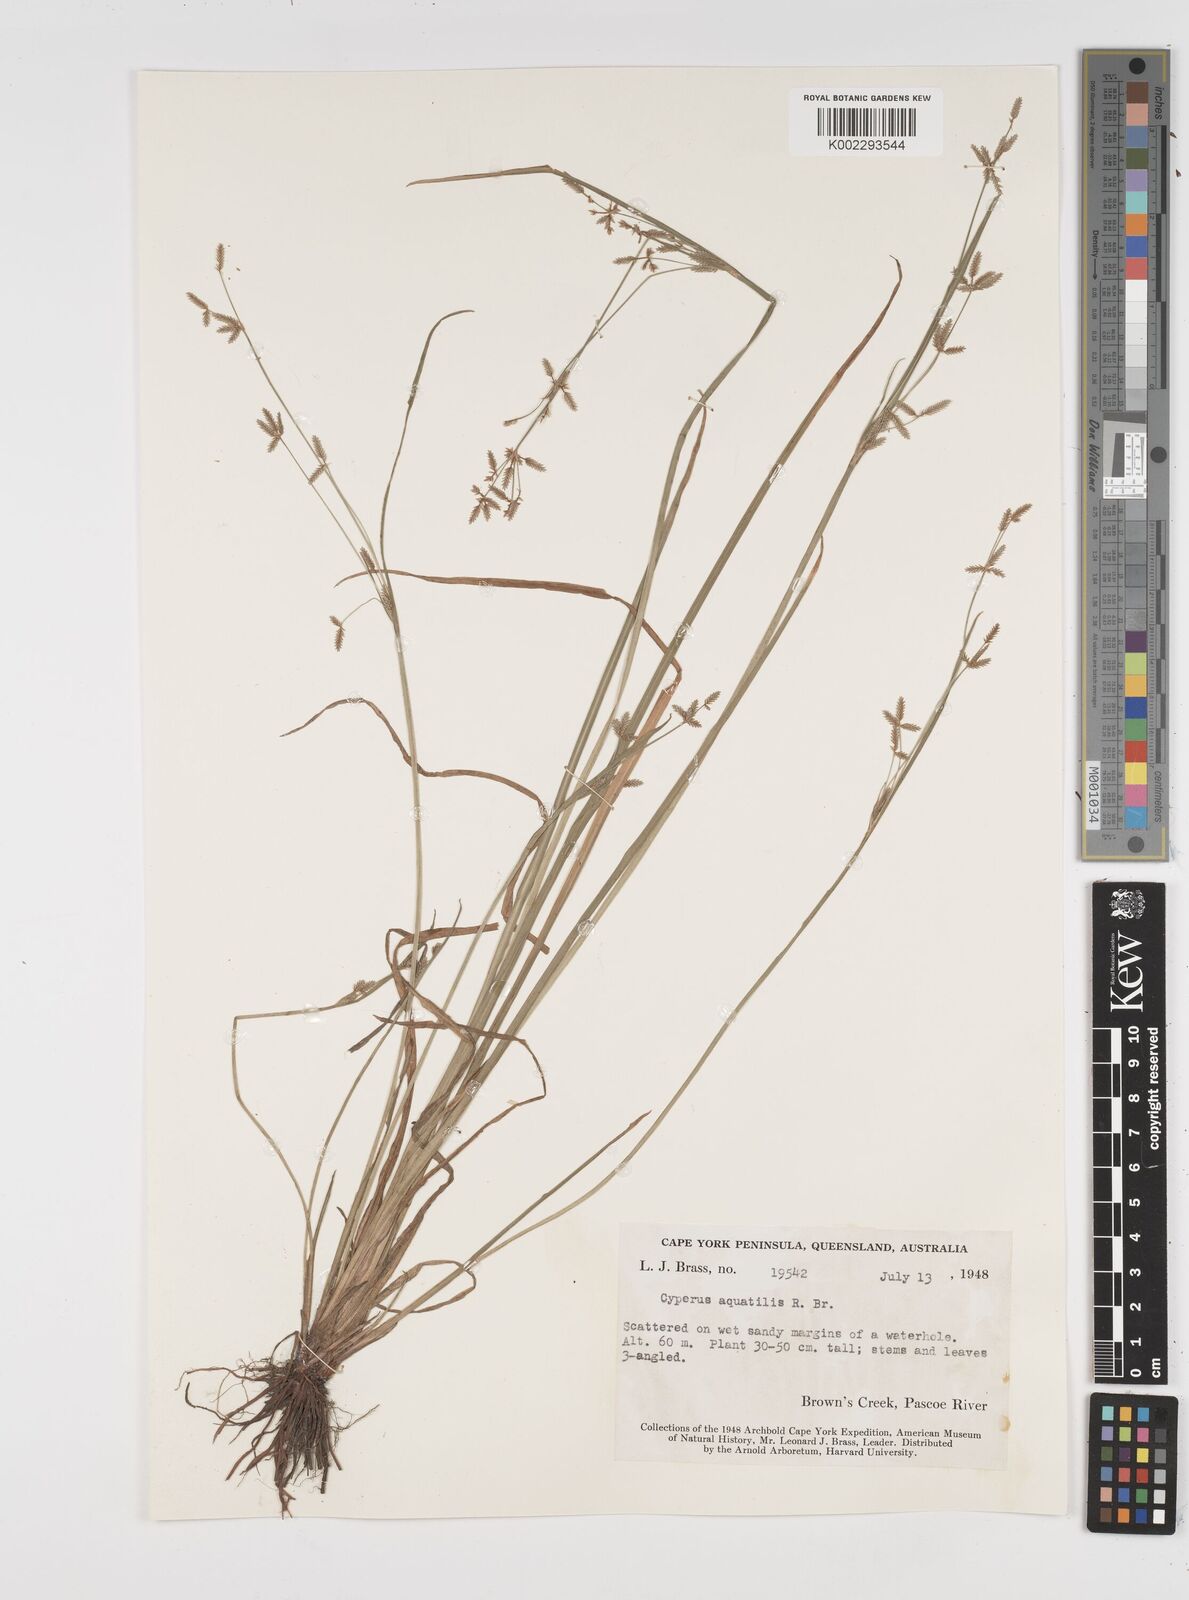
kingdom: Plantae
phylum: Tracheophyta
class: Liliopsida
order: Poales
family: Cyperaceae
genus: Cyperus
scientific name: Cyperus aquatilis
